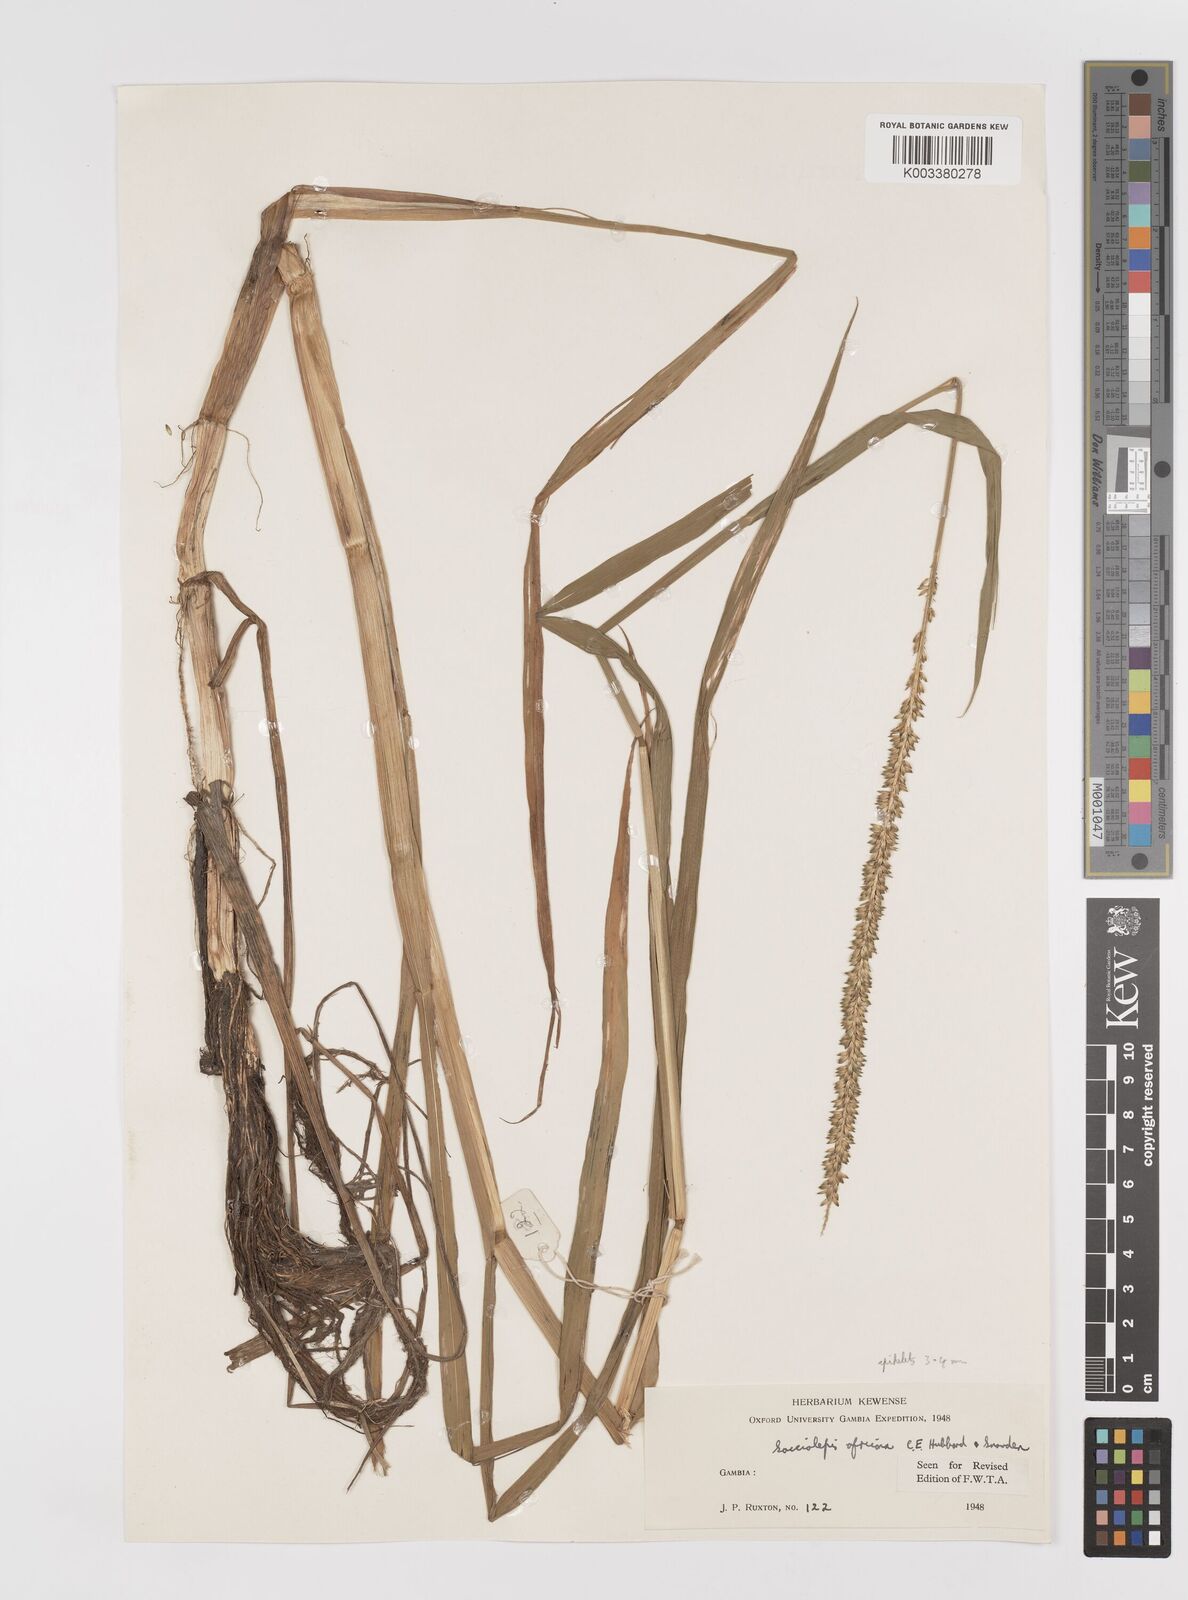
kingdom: Plantae
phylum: Tracheophyta
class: Liliopsida
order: Poales
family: Poaceae
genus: Sacciolepis
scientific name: Sacciolepis africana
